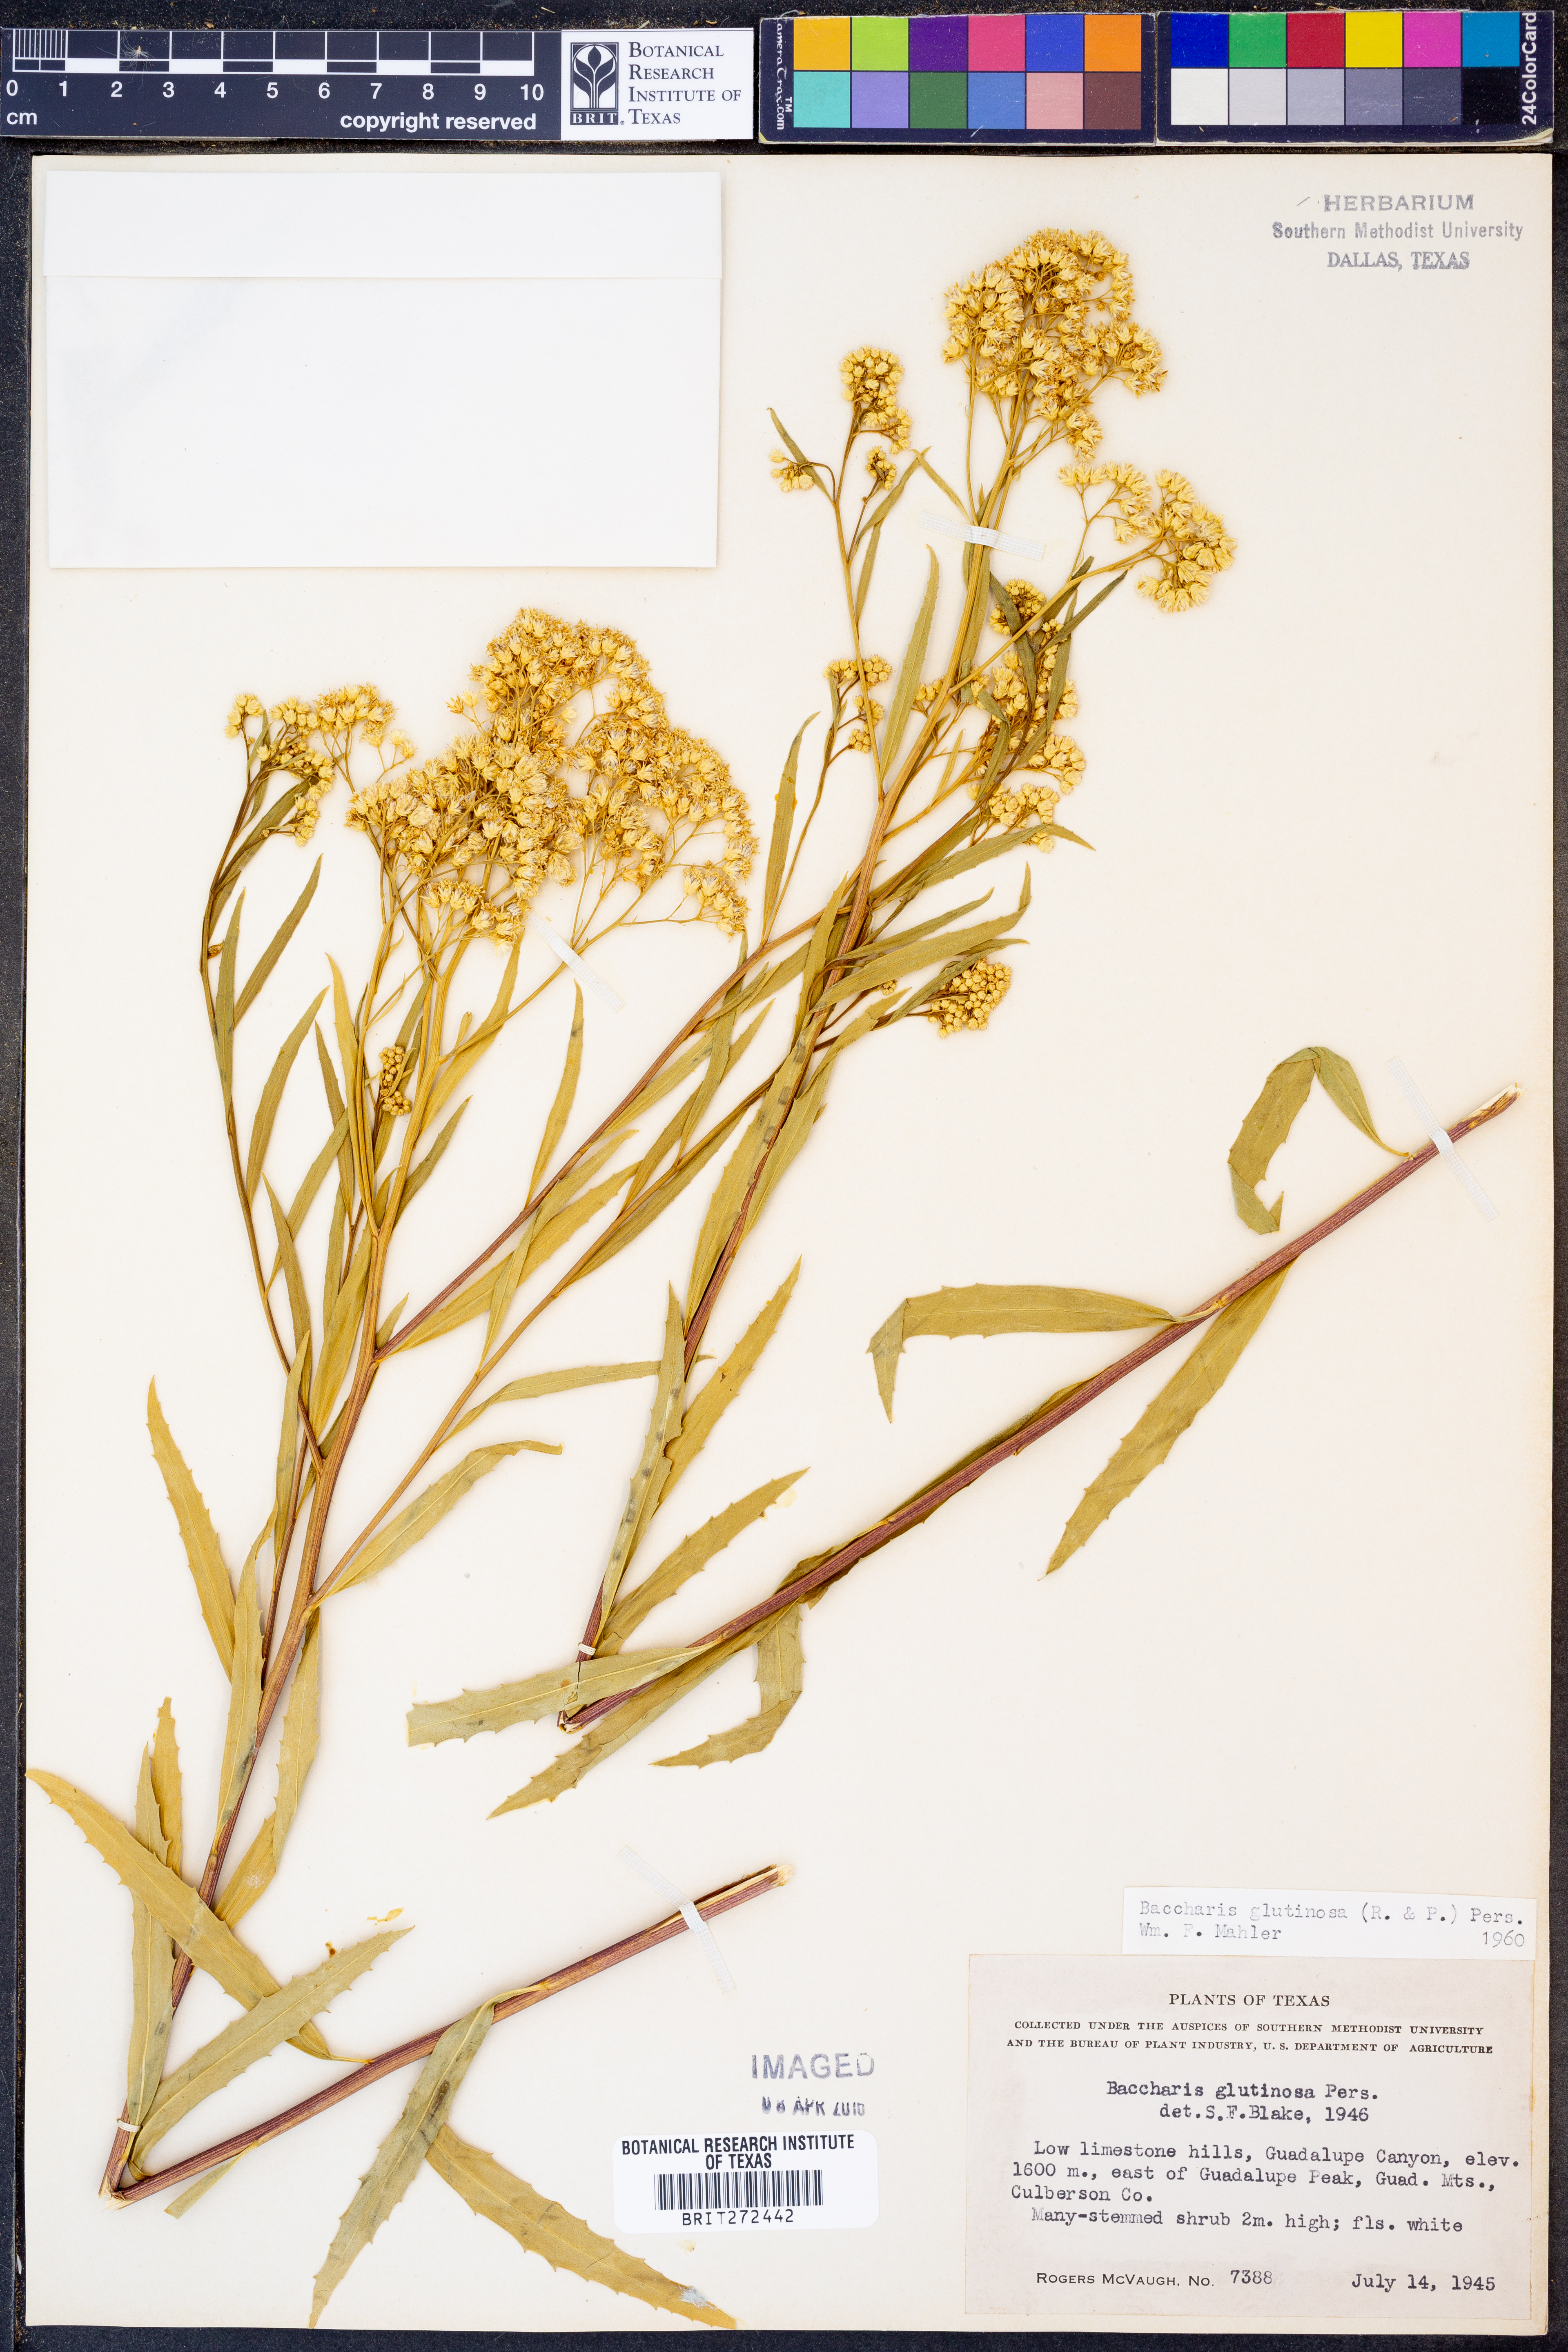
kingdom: Plantae
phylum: Tracheophyta
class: Magnoliopsida
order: Asterales
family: Asteraceae
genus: Baccharis
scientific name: Baccharis glutinosa
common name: Saltmarsh baccharis
